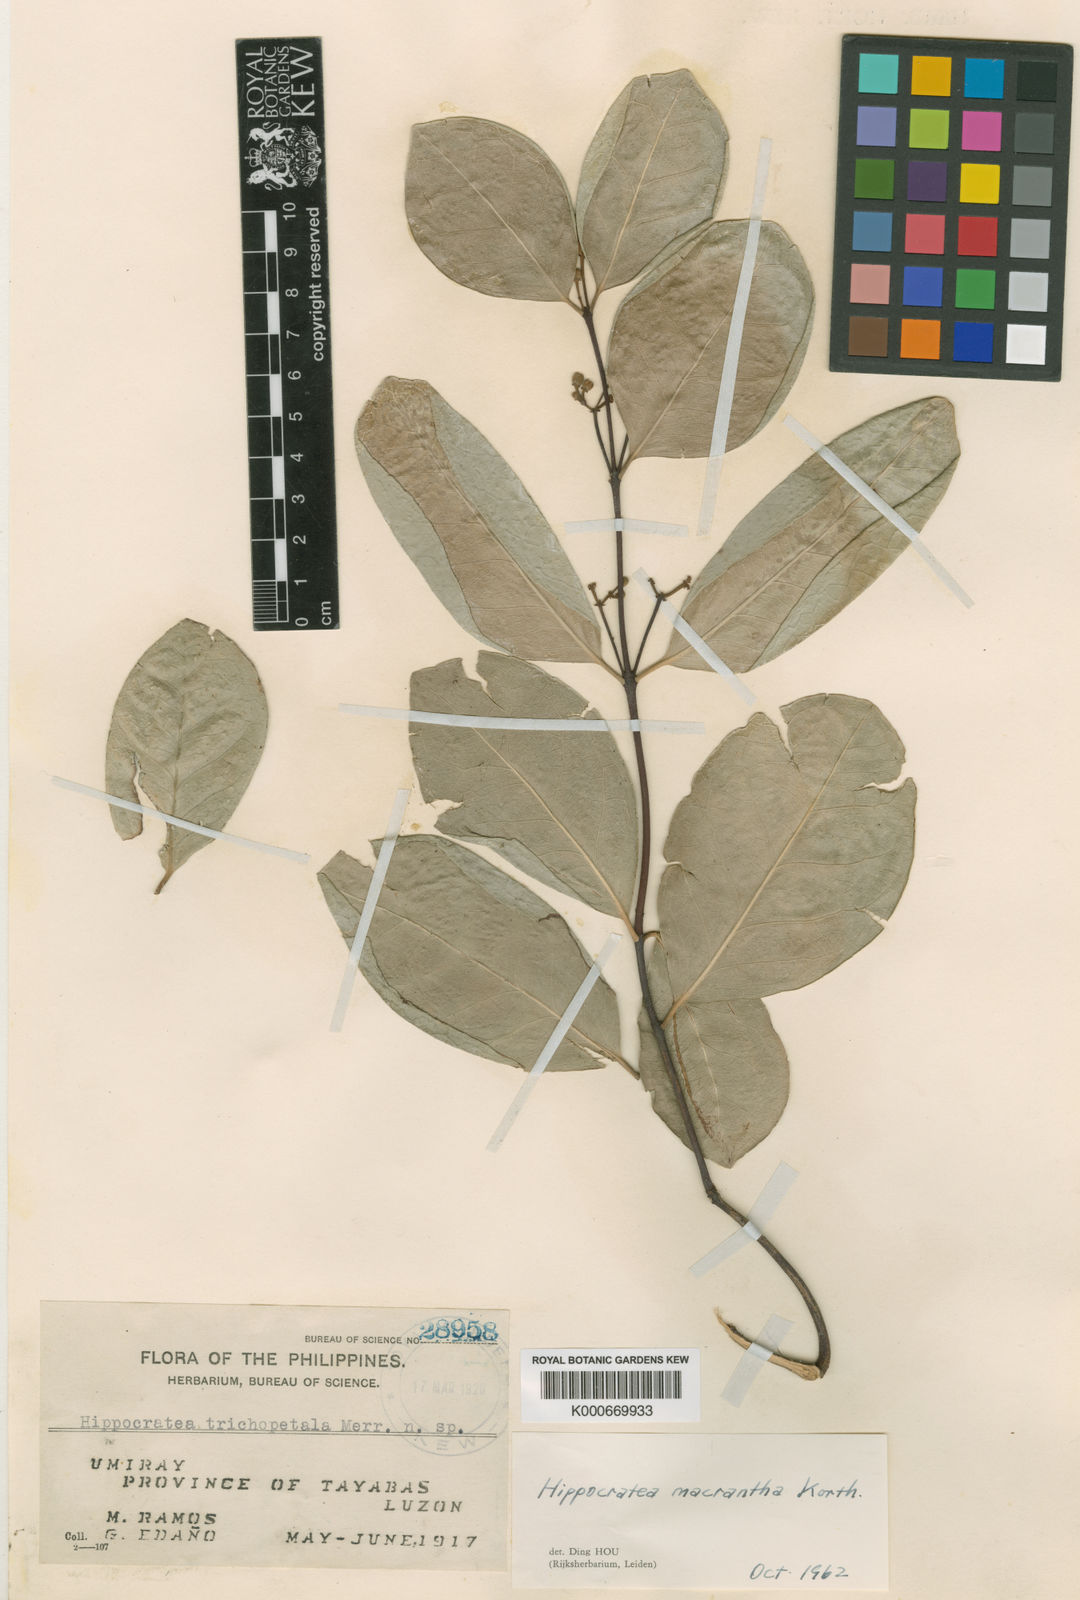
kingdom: Plantae
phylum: Tracheophyta
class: Magnoliopsida
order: Celastrales
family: Celastraceae
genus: Loeseneriella
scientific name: Loeseneriella macrantha
